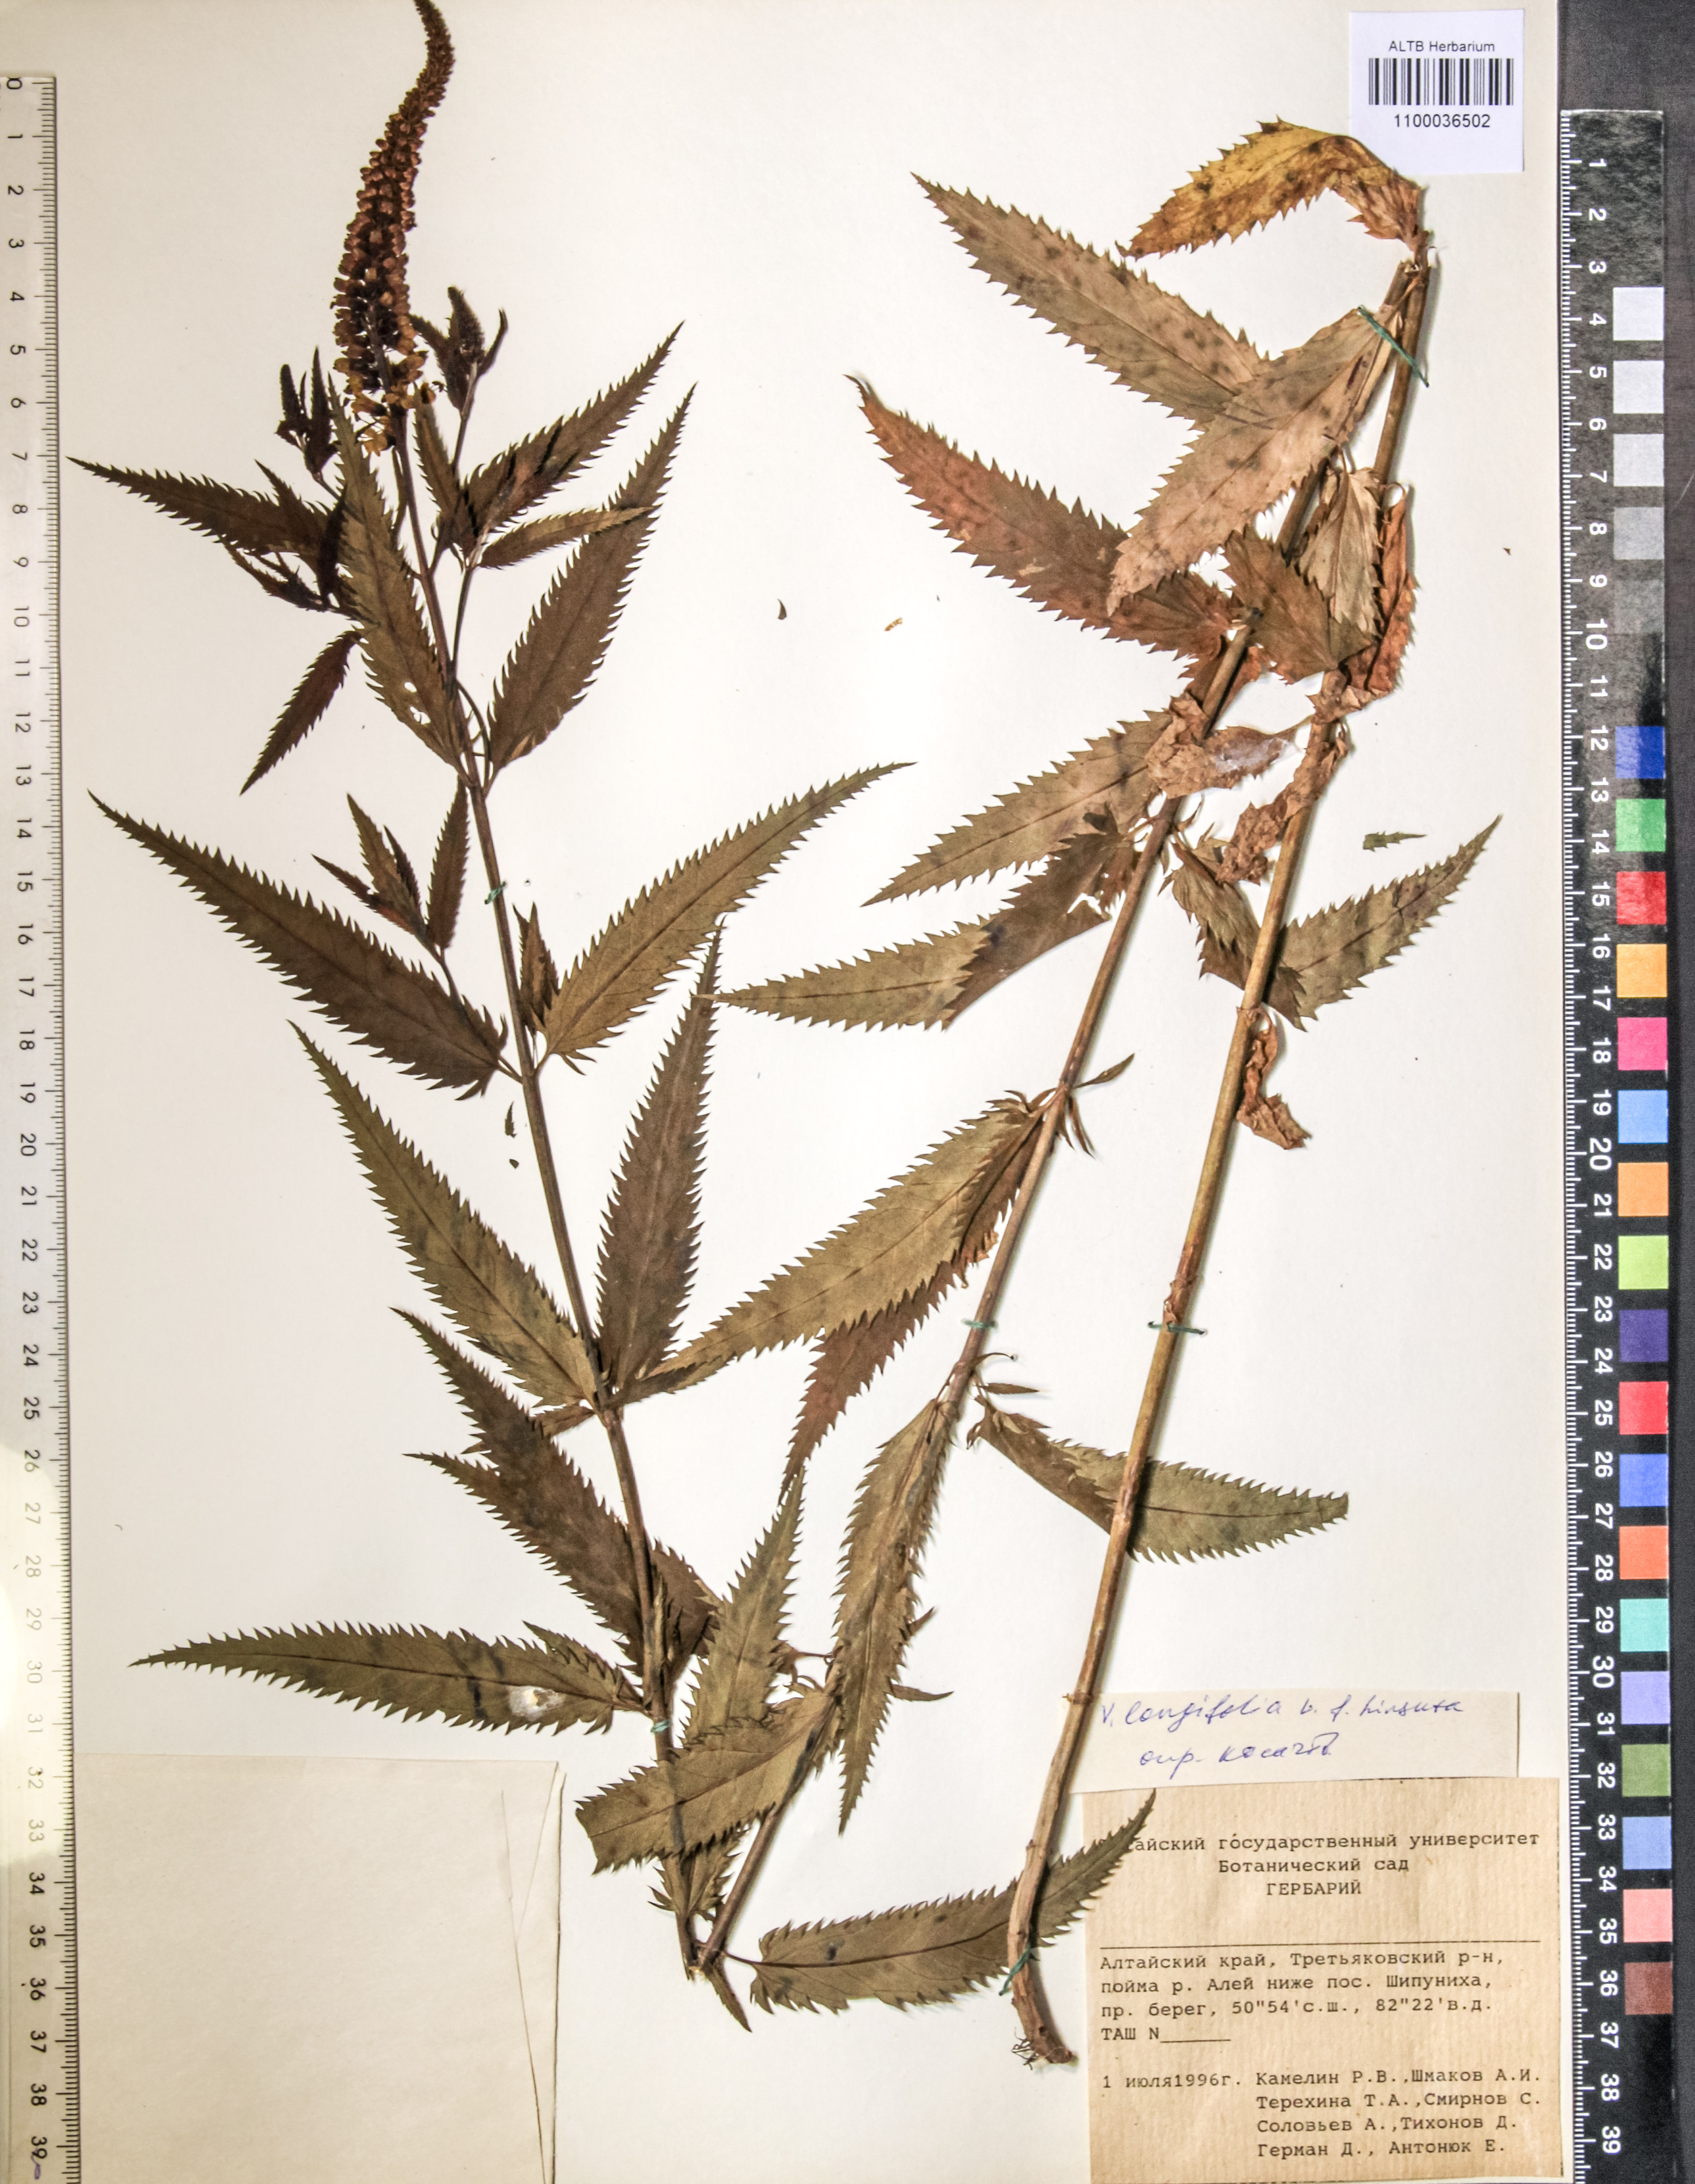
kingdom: Plantae
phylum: Tracheophyta
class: Magnoliopsida
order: Lamiales
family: Plantaginaceae
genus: Veronica
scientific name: Veronica longifolia
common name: Garden speedwell
